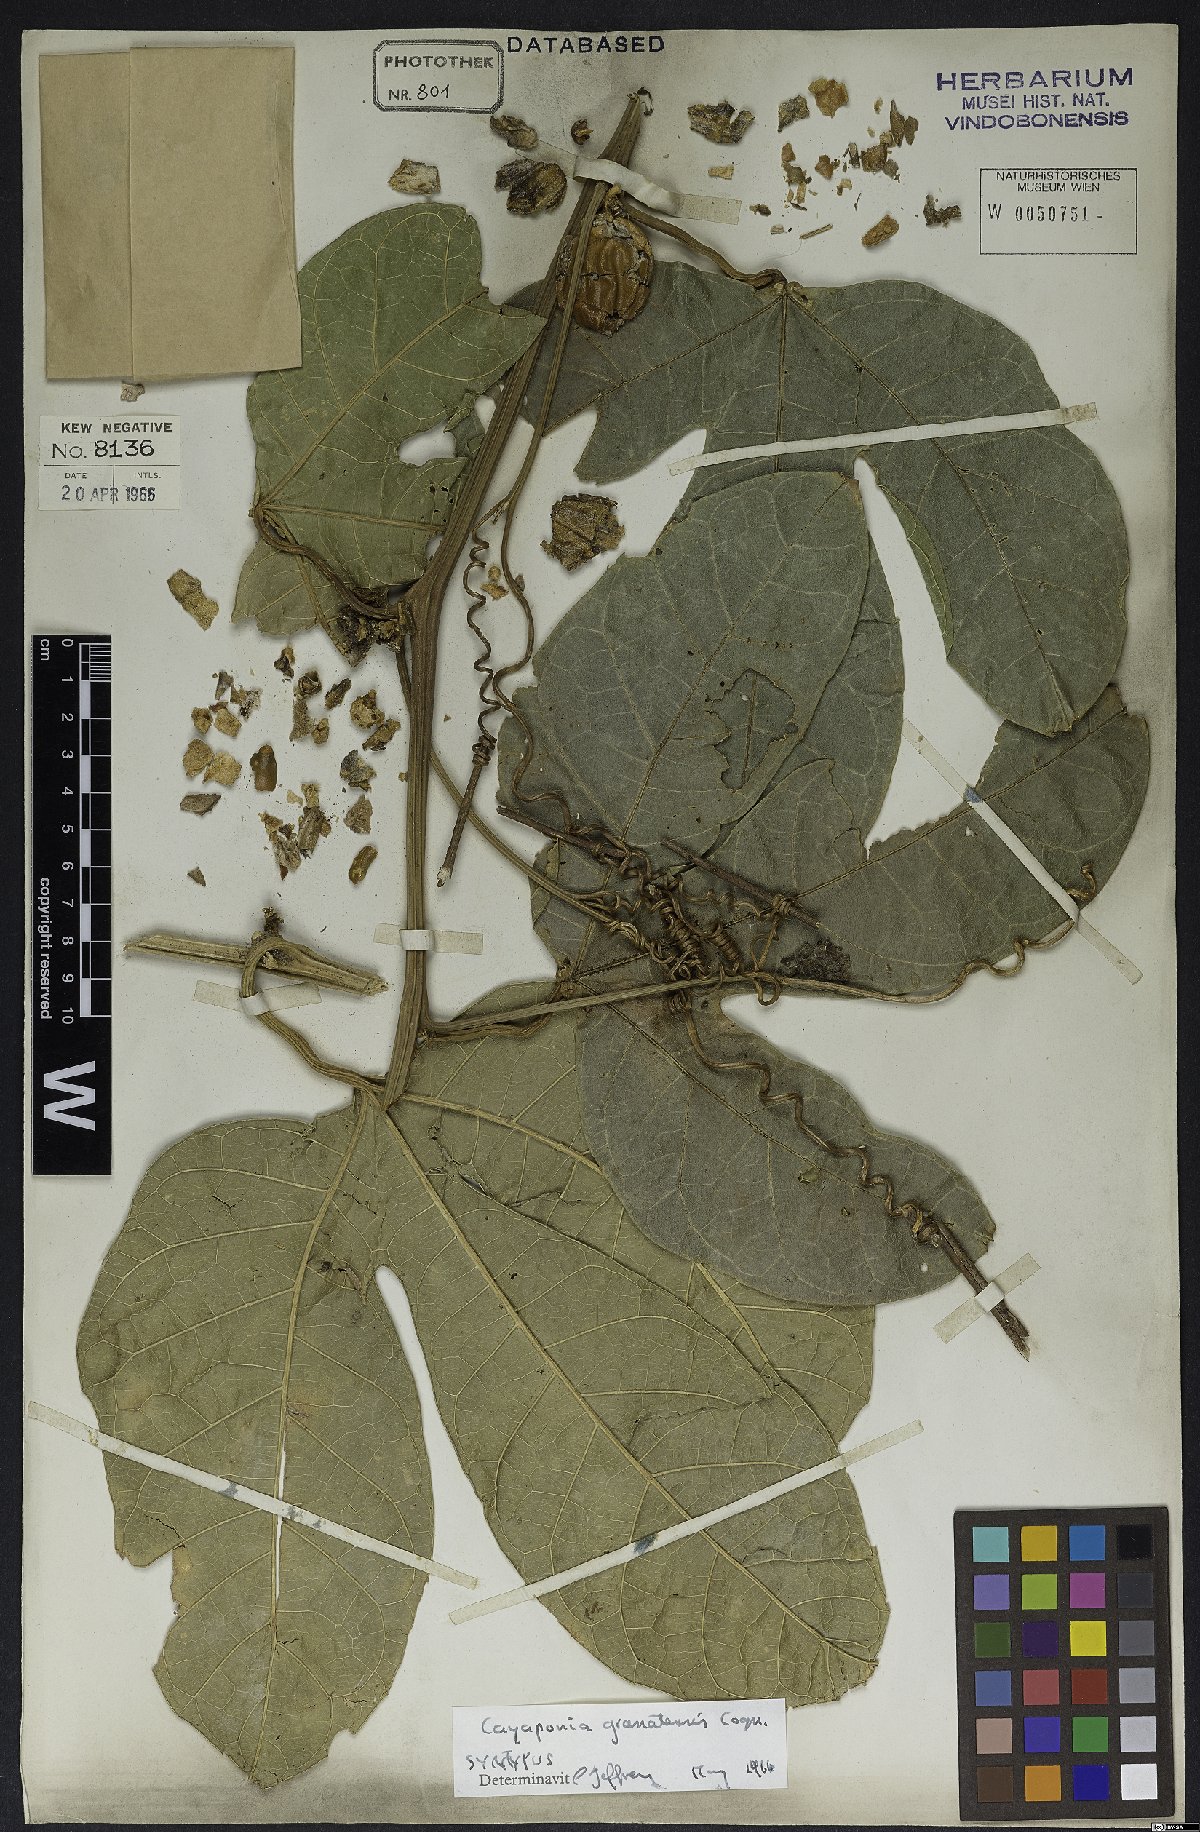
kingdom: Plantae
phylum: Tracheophyta
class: Magnoliopsida
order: Cucurbitales
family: Cucurbitaceae
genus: Cayaponia
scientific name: Cayaponia granatensis
